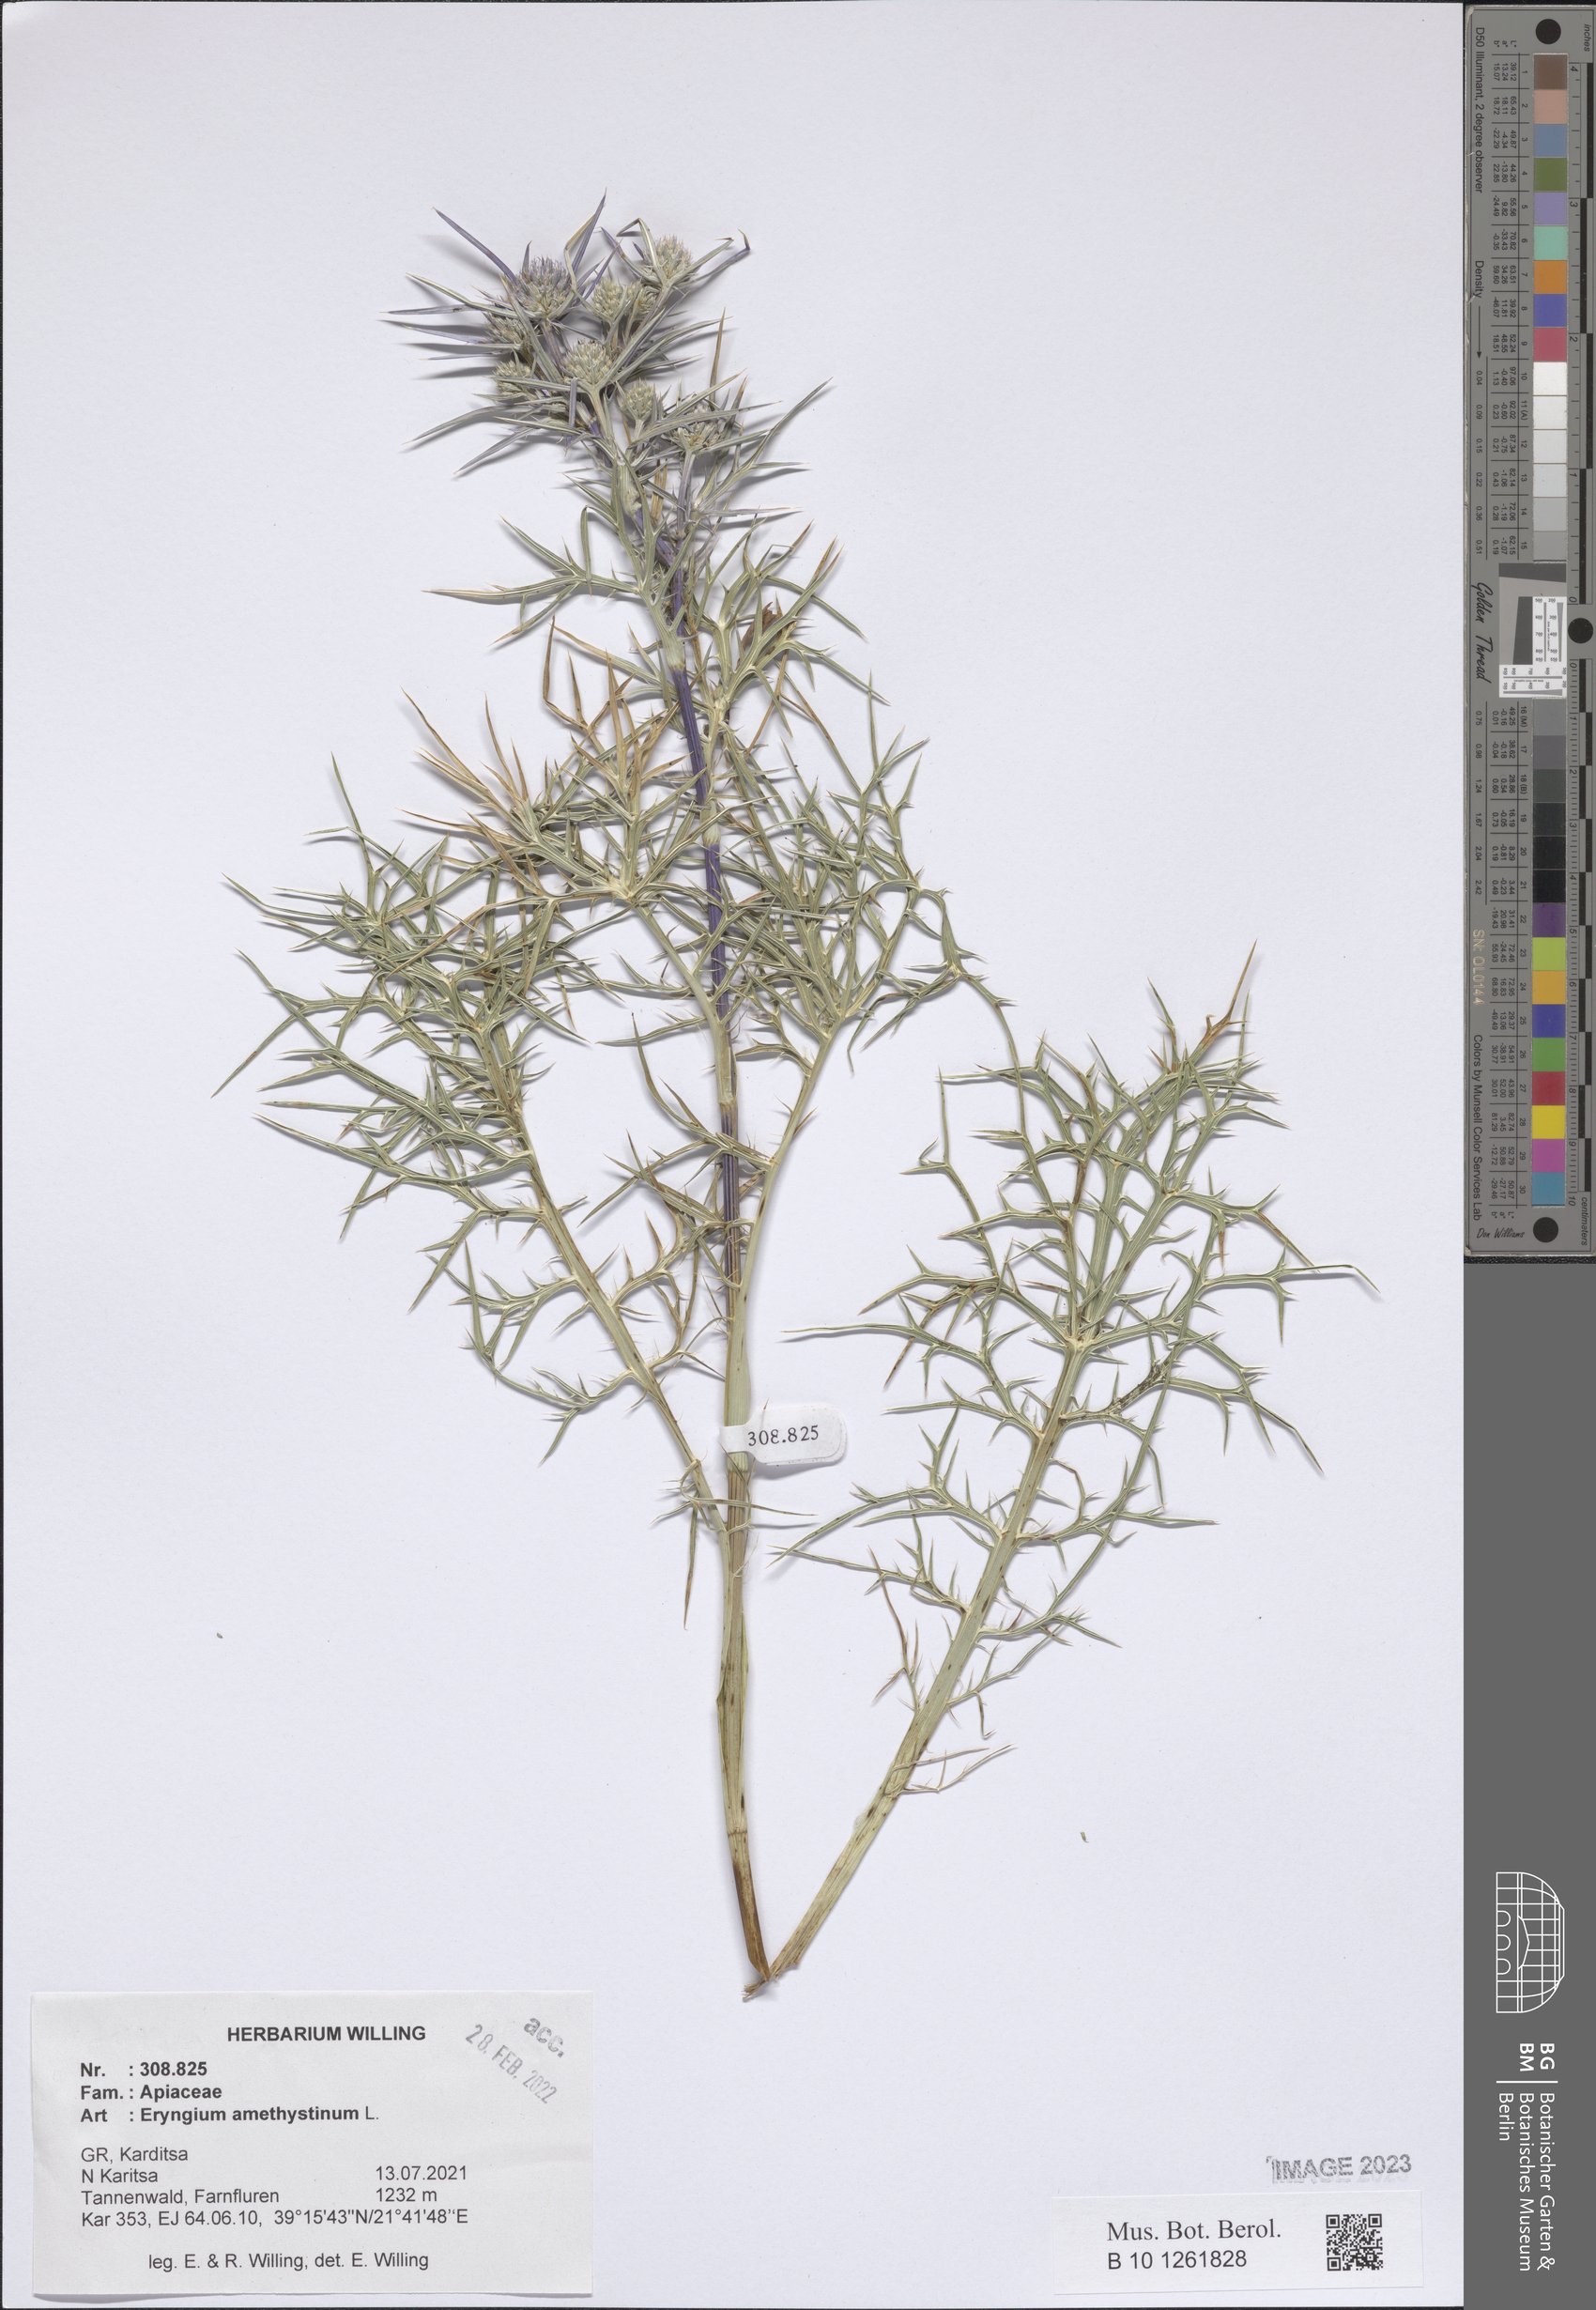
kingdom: Plantae
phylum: Tracheophyta
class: Magnoliopsida
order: Apiales
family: Apiaceae
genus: Eryngium
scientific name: Eryngium amethystinum
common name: Amethyst eryngo
